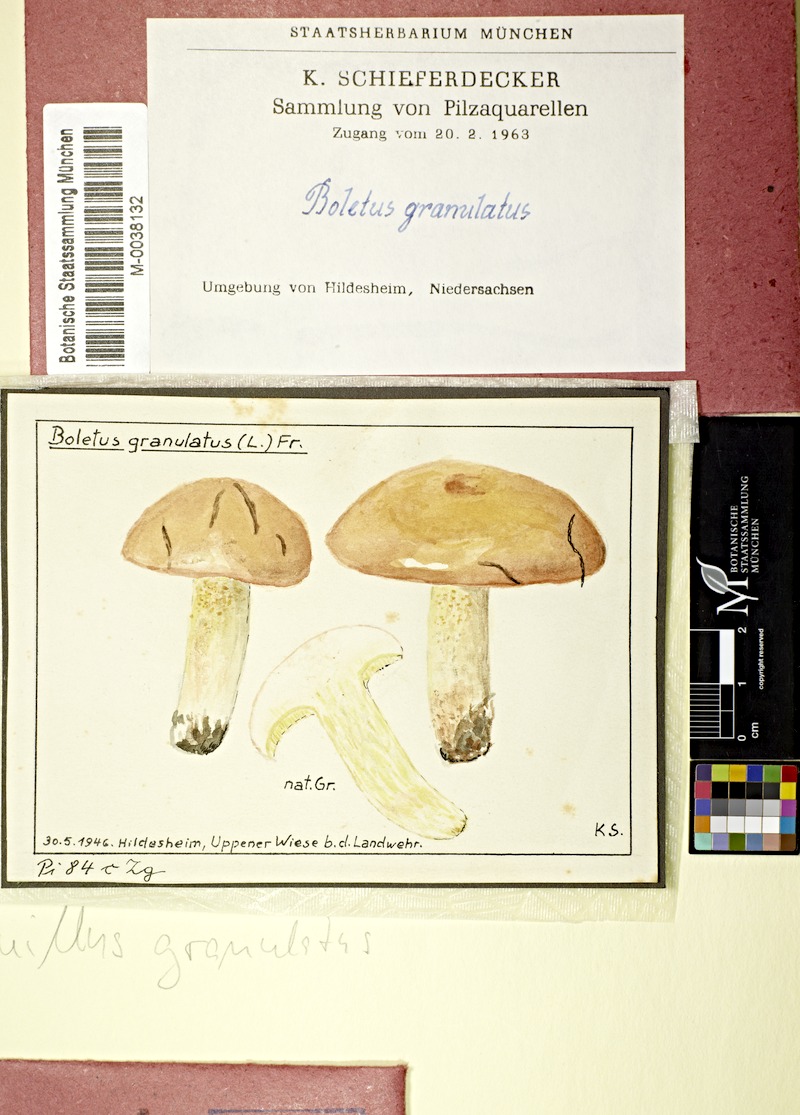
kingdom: Fungi
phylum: Basidiomycota
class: Agaricomycetes
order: Boletales
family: Suillaceae
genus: Suillus
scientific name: Suillus granulatus
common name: Weeping bolete
